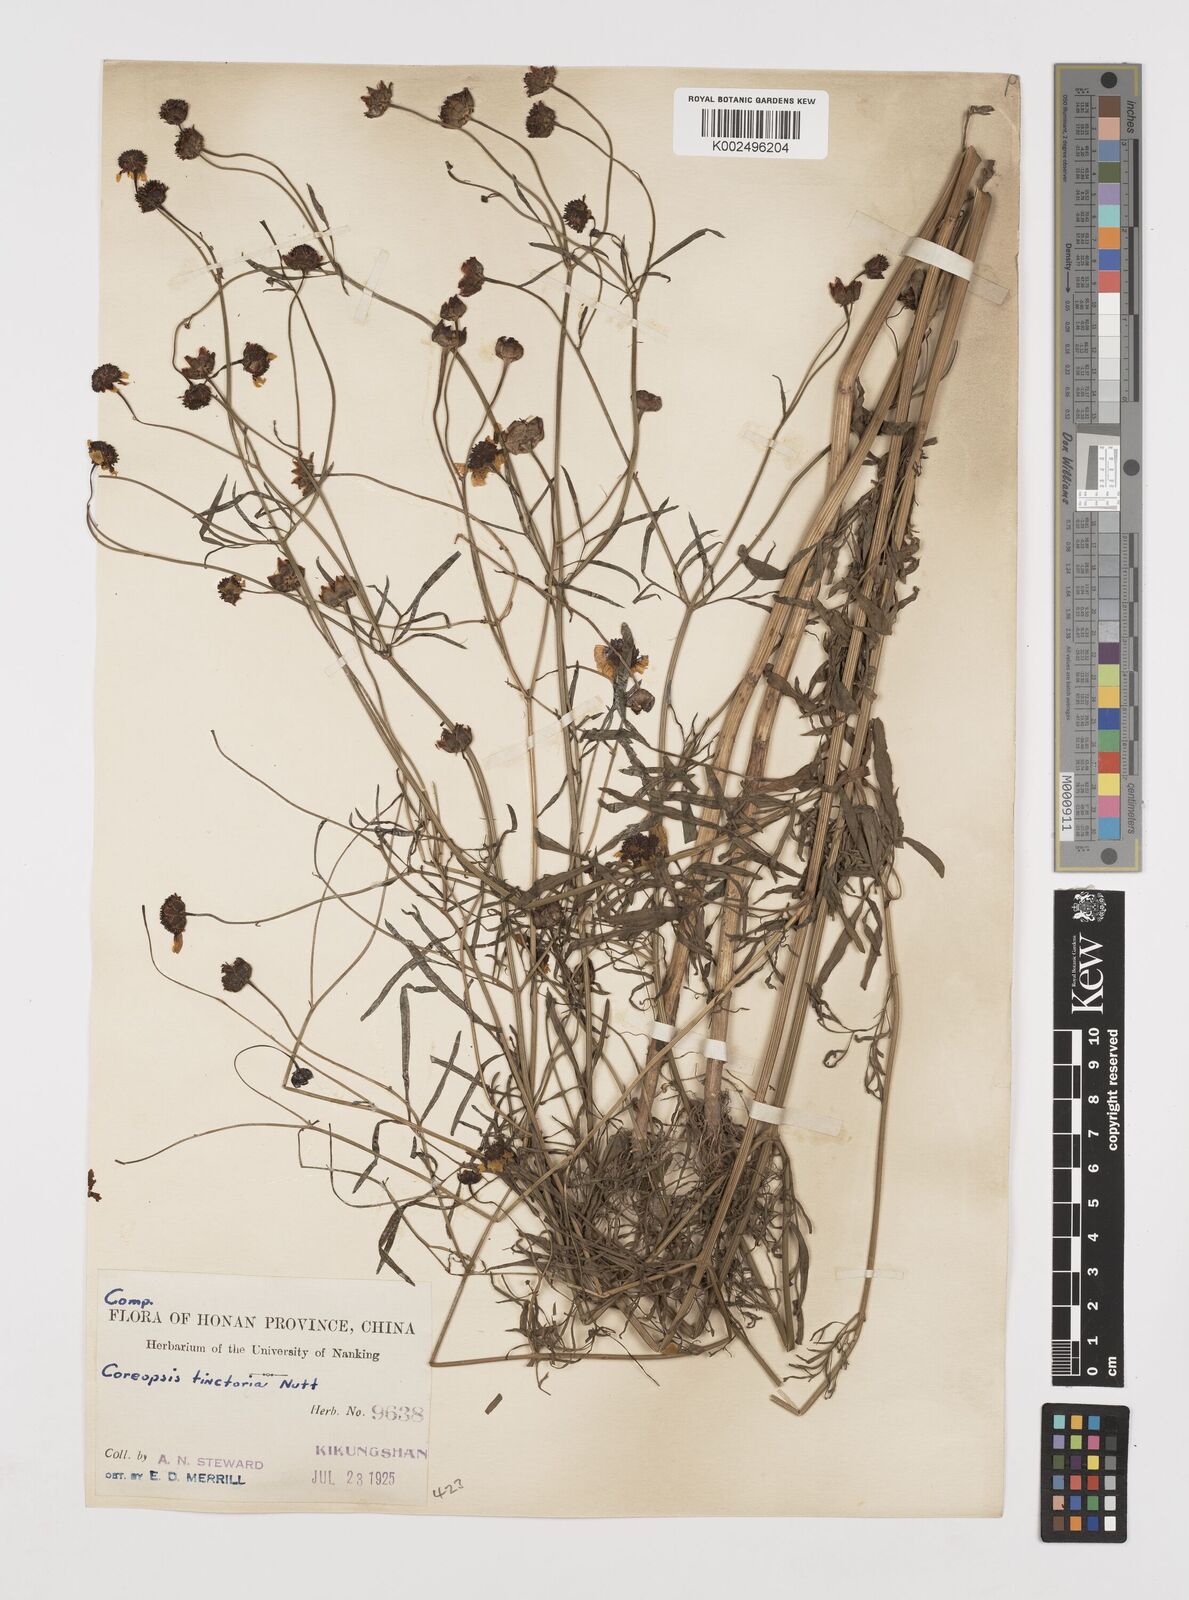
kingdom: Plantae
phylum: Tracheophyta
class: Magnoliopsida
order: Asterales
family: Asteraceae
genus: Coreopsis
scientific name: Coreopsis tinctoria
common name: Garden tickseed
